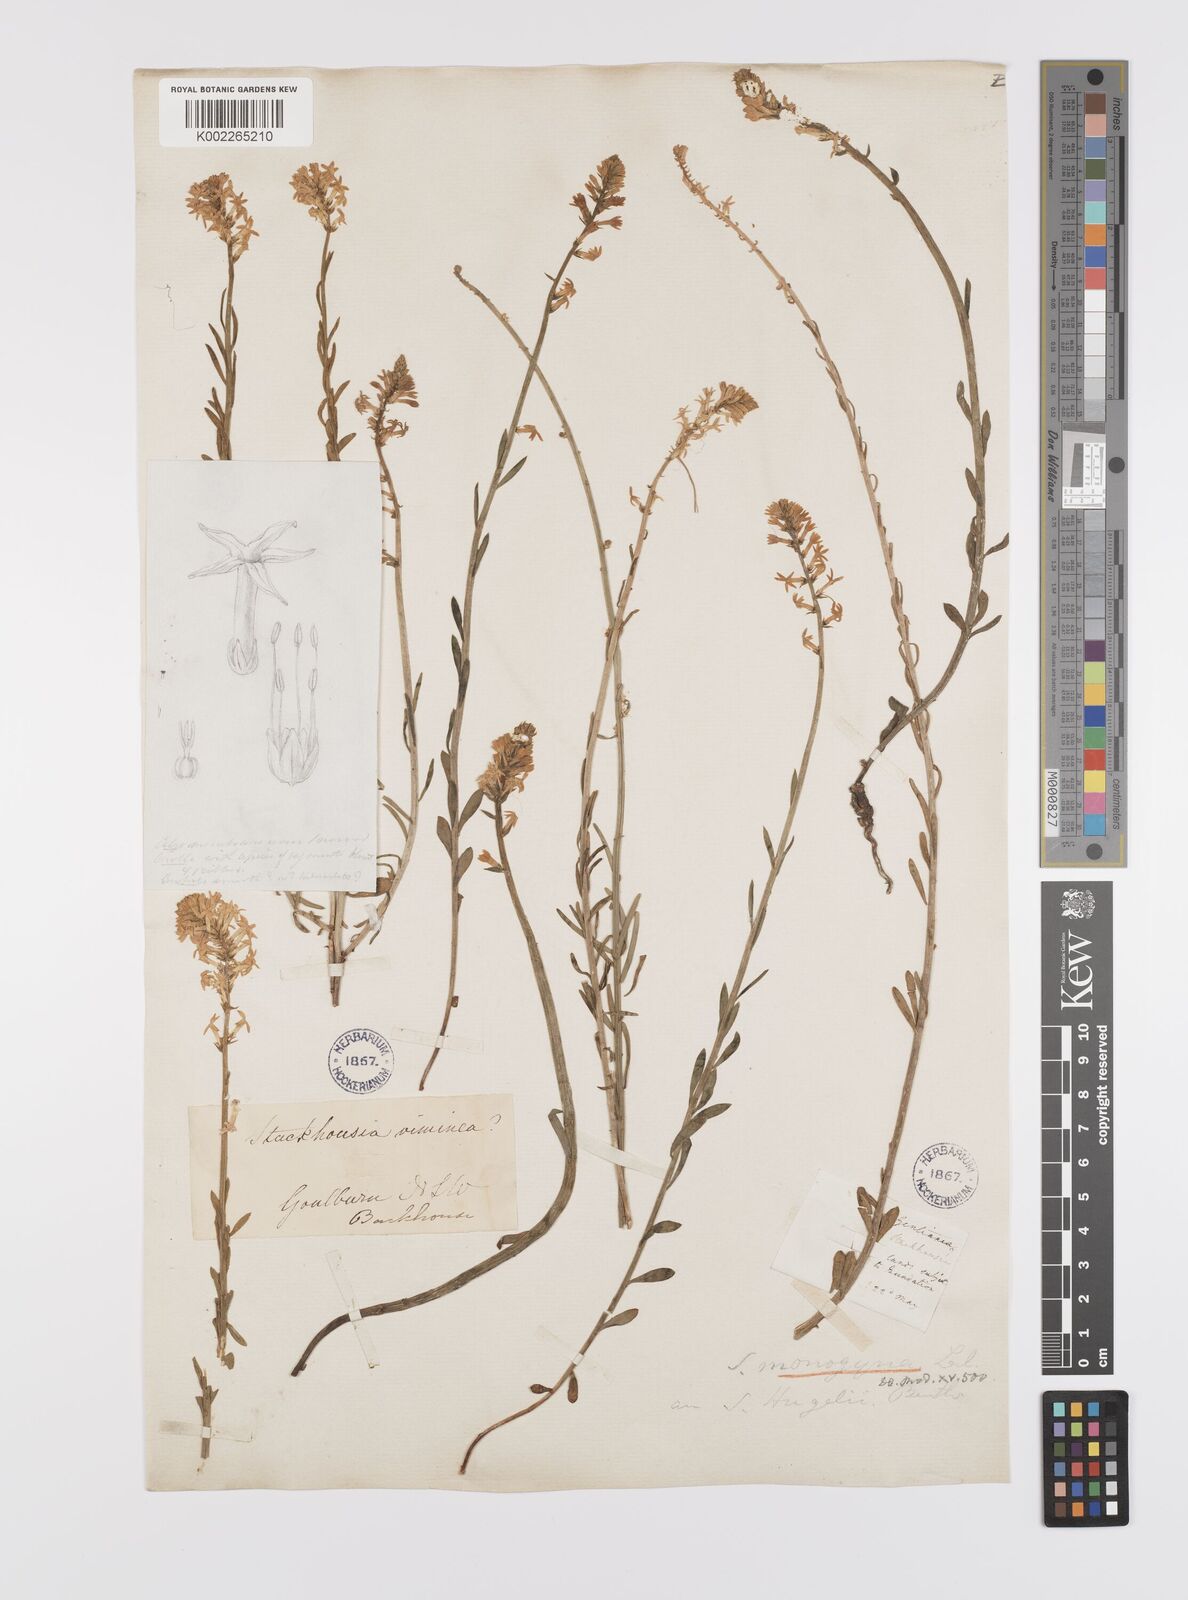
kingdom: Plantae
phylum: Tracheophyta
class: Magnoliopsida
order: Celastrales
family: Celastraceae
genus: Stackhousia
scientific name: Stackhousia monogyna
